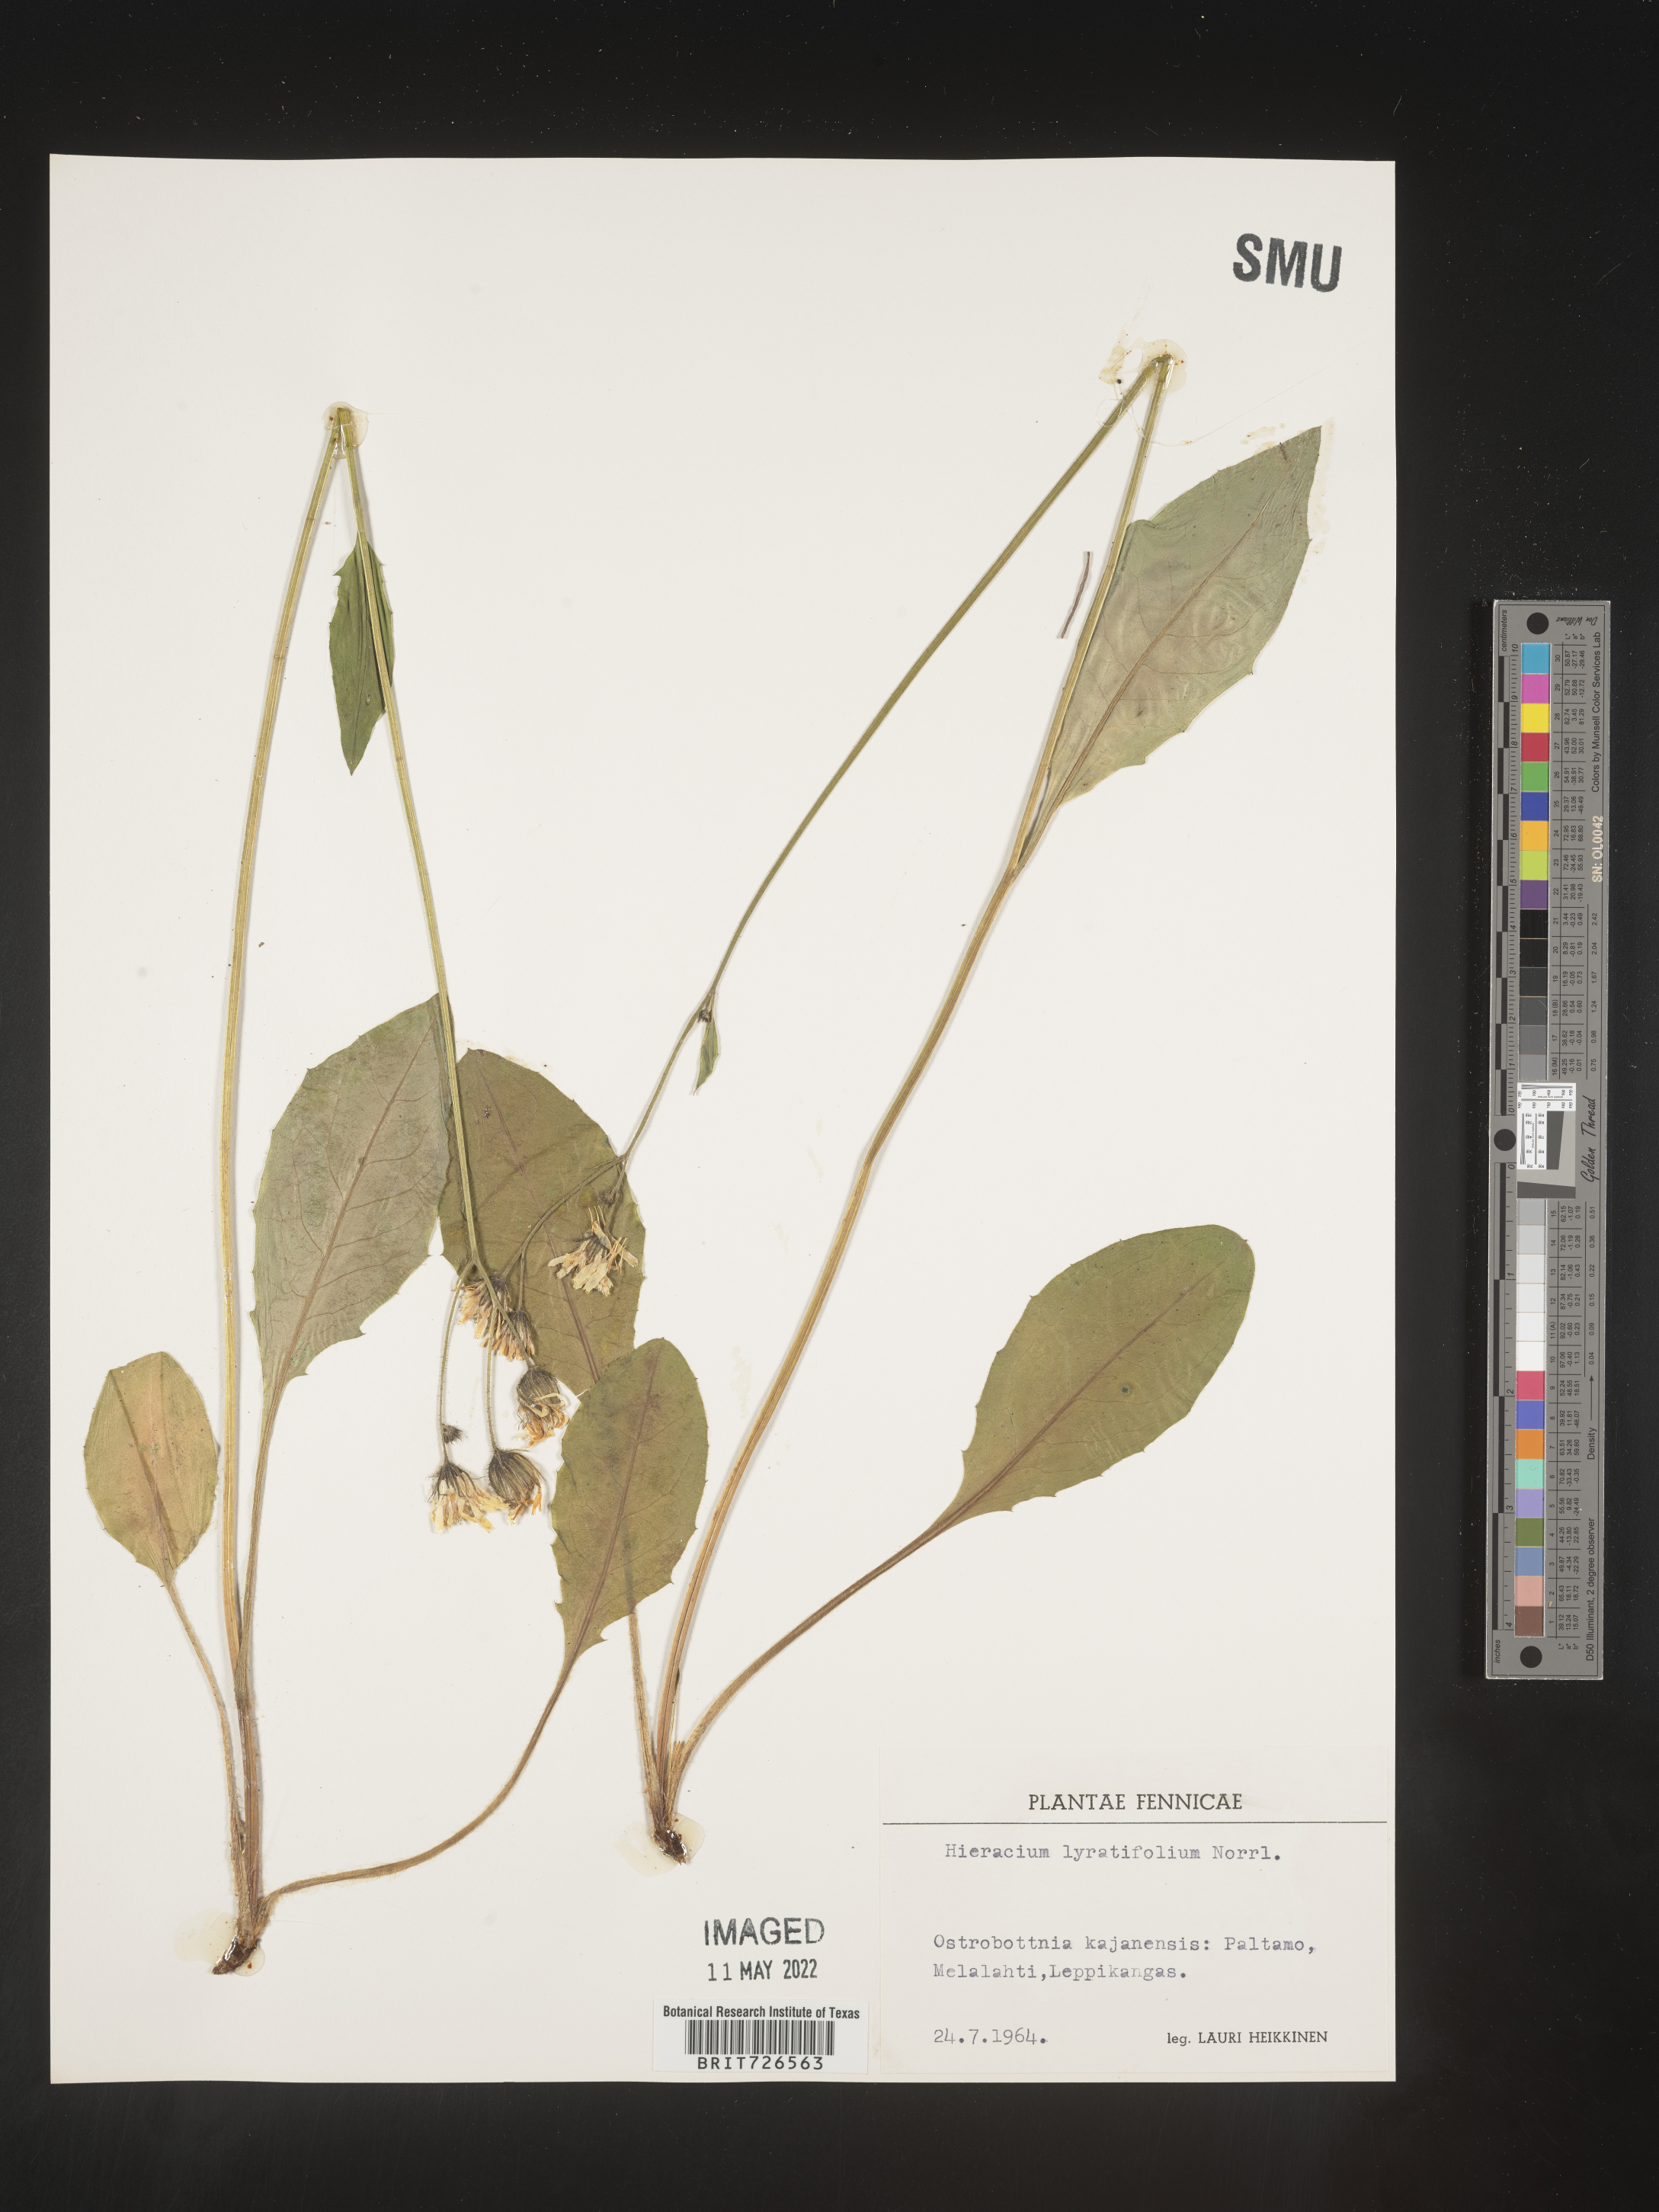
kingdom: Plantae
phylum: Tracheophyta
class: Magnoliopsida
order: Asterales
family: Asteraceae
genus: Hieracium
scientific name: Hieracium
